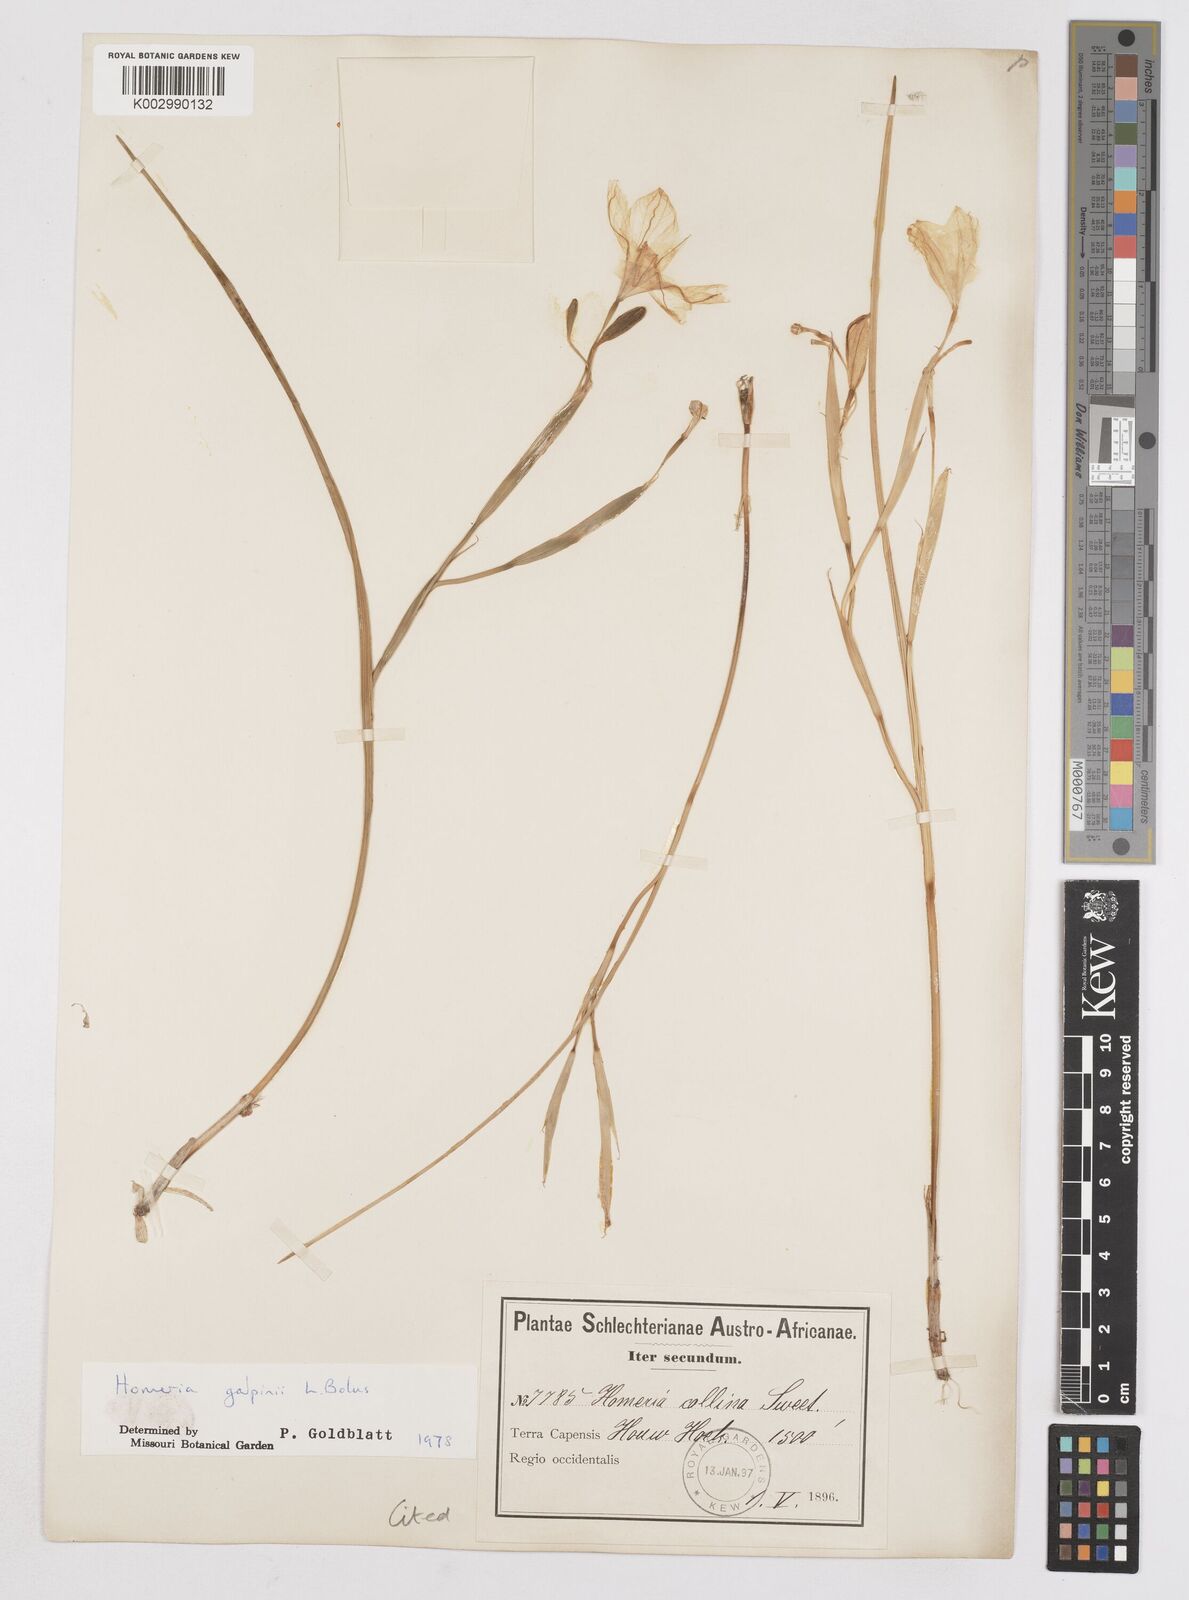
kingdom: Plantae
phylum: Tracheophyta
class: Liliopsida
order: Asparagales
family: Iridaceae
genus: Moraea
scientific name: Moraea
